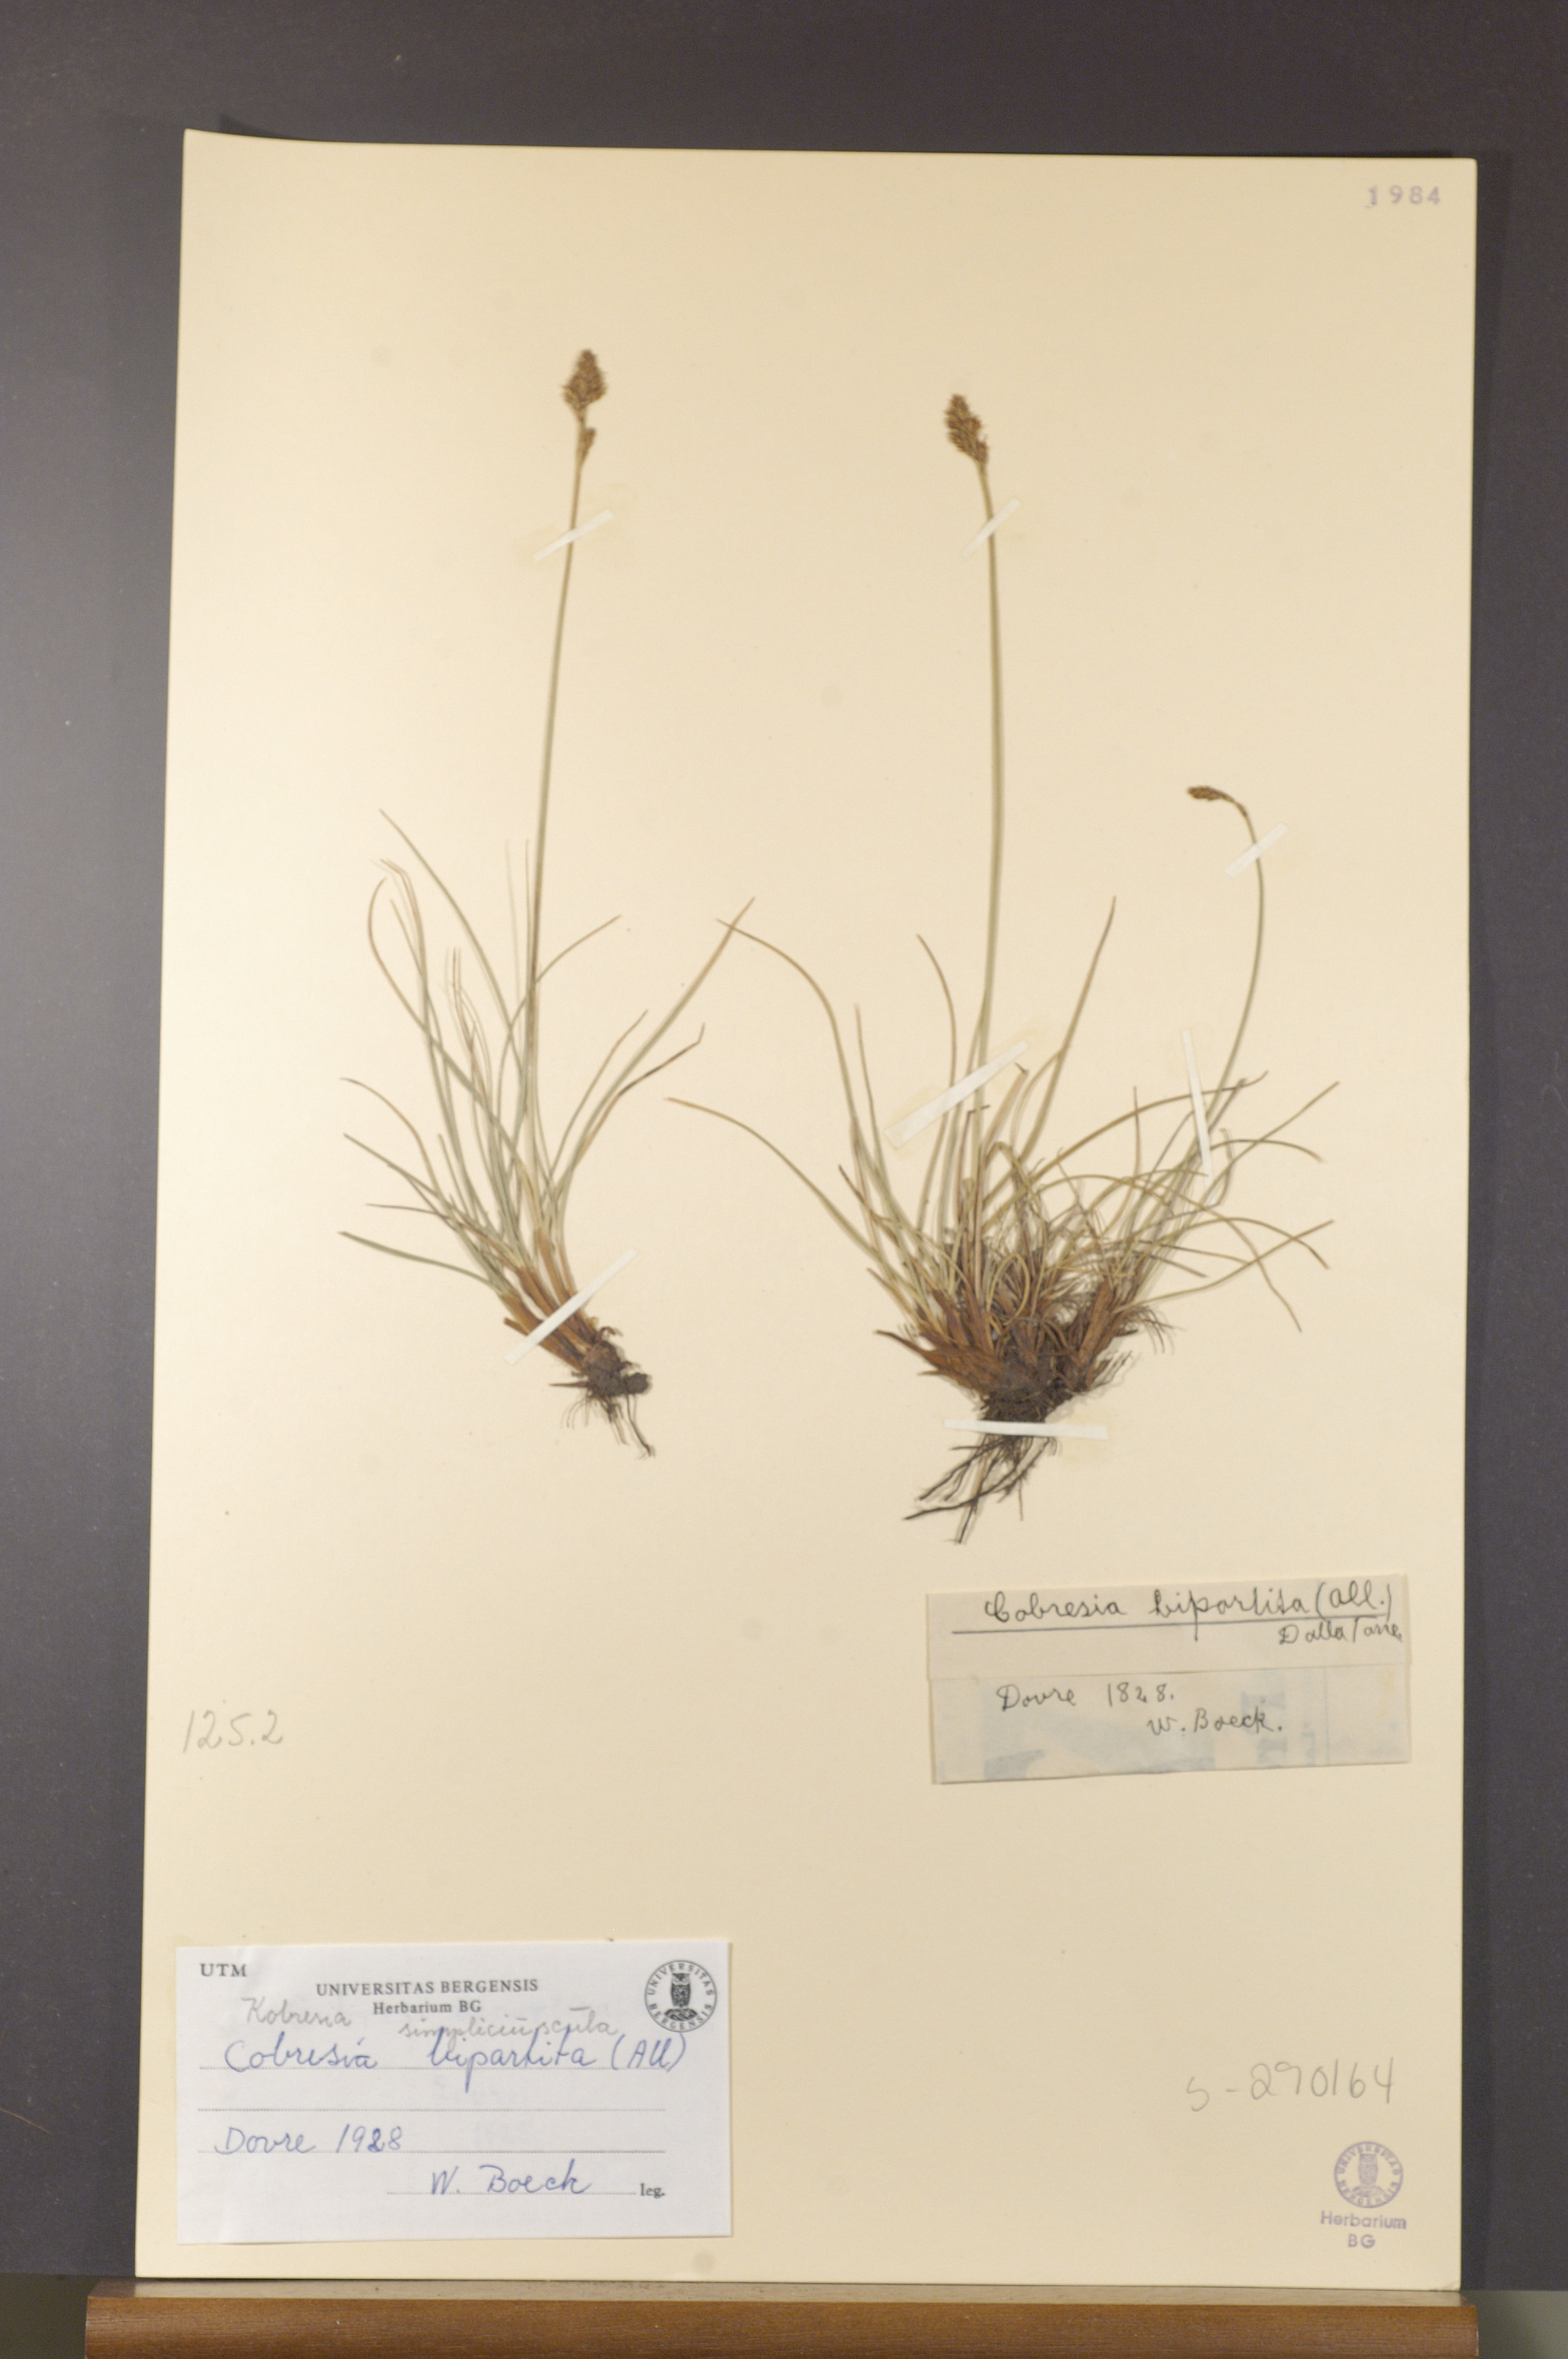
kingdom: Plantae
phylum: Tracheophyta
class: Liliopsida
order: Poales
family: Cyperaceae
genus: Carex
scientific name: Carex simpliciuscula
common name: Simple bog sedge
